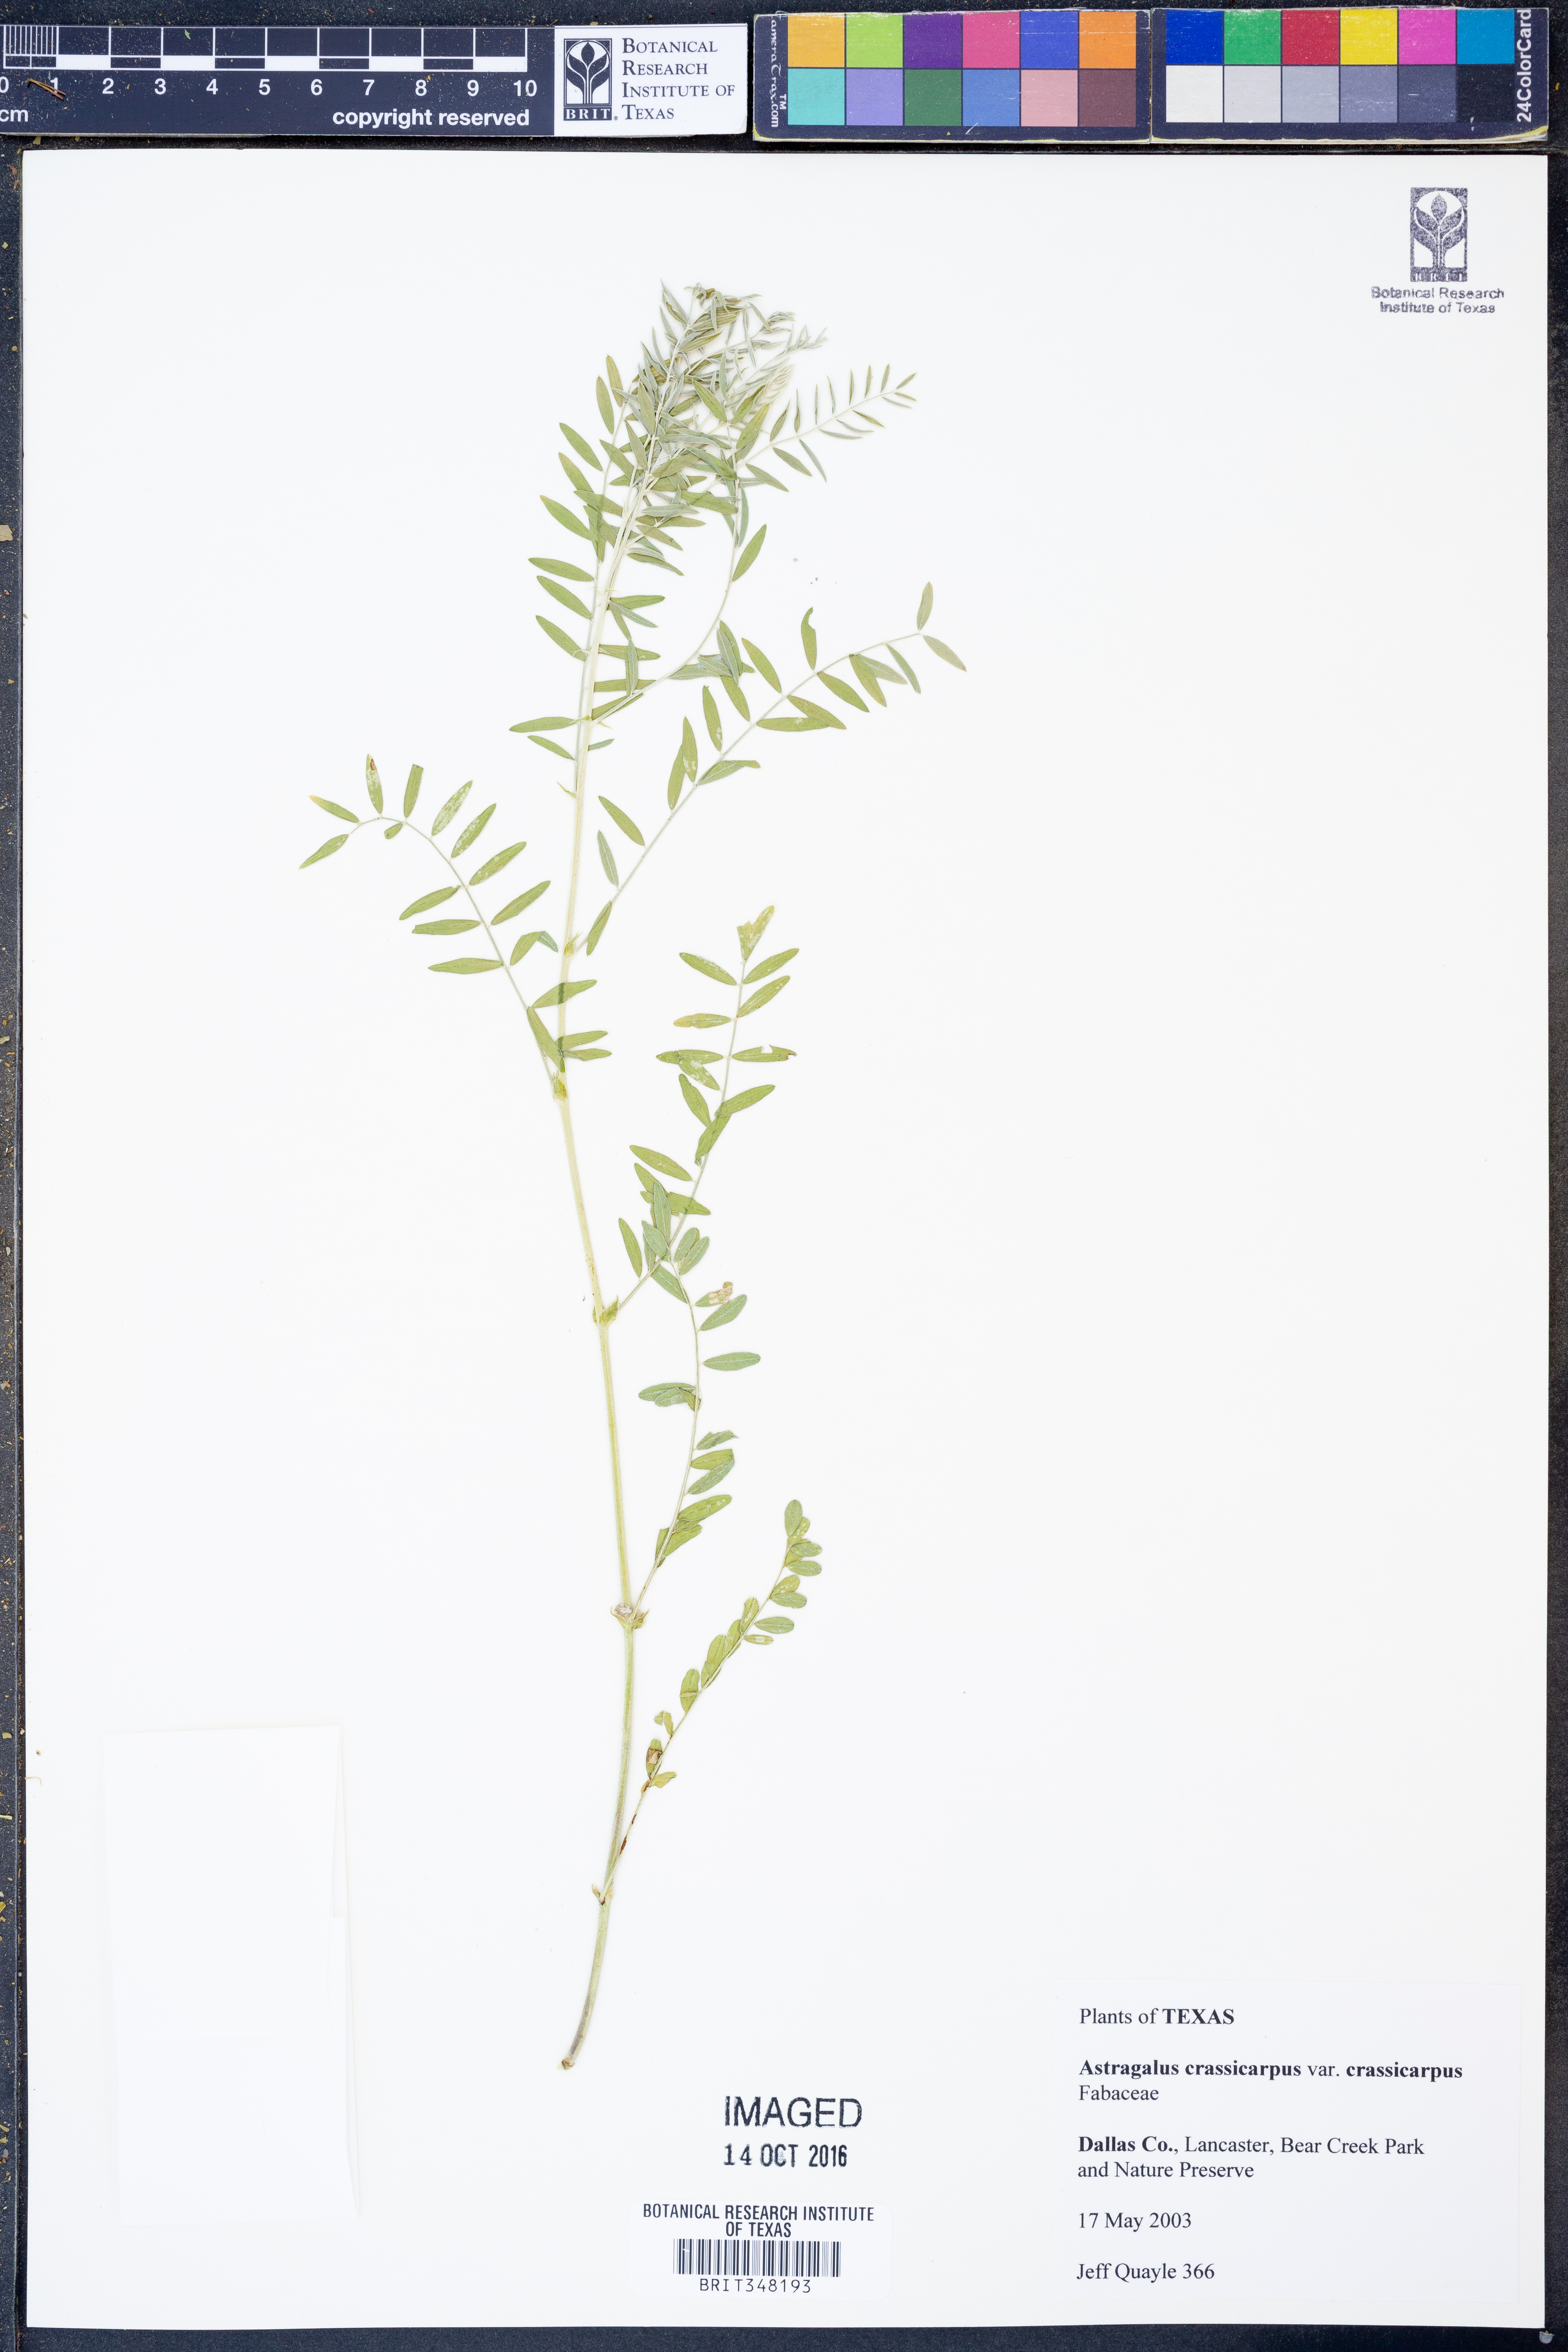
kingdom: Plantae
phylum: Tracheophyta
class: Magnoliopsida
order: Fabales
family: Fabaceae
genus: Astragalus
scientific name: Astragalus crassicarpus
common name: Ground-plum milk-vetch
